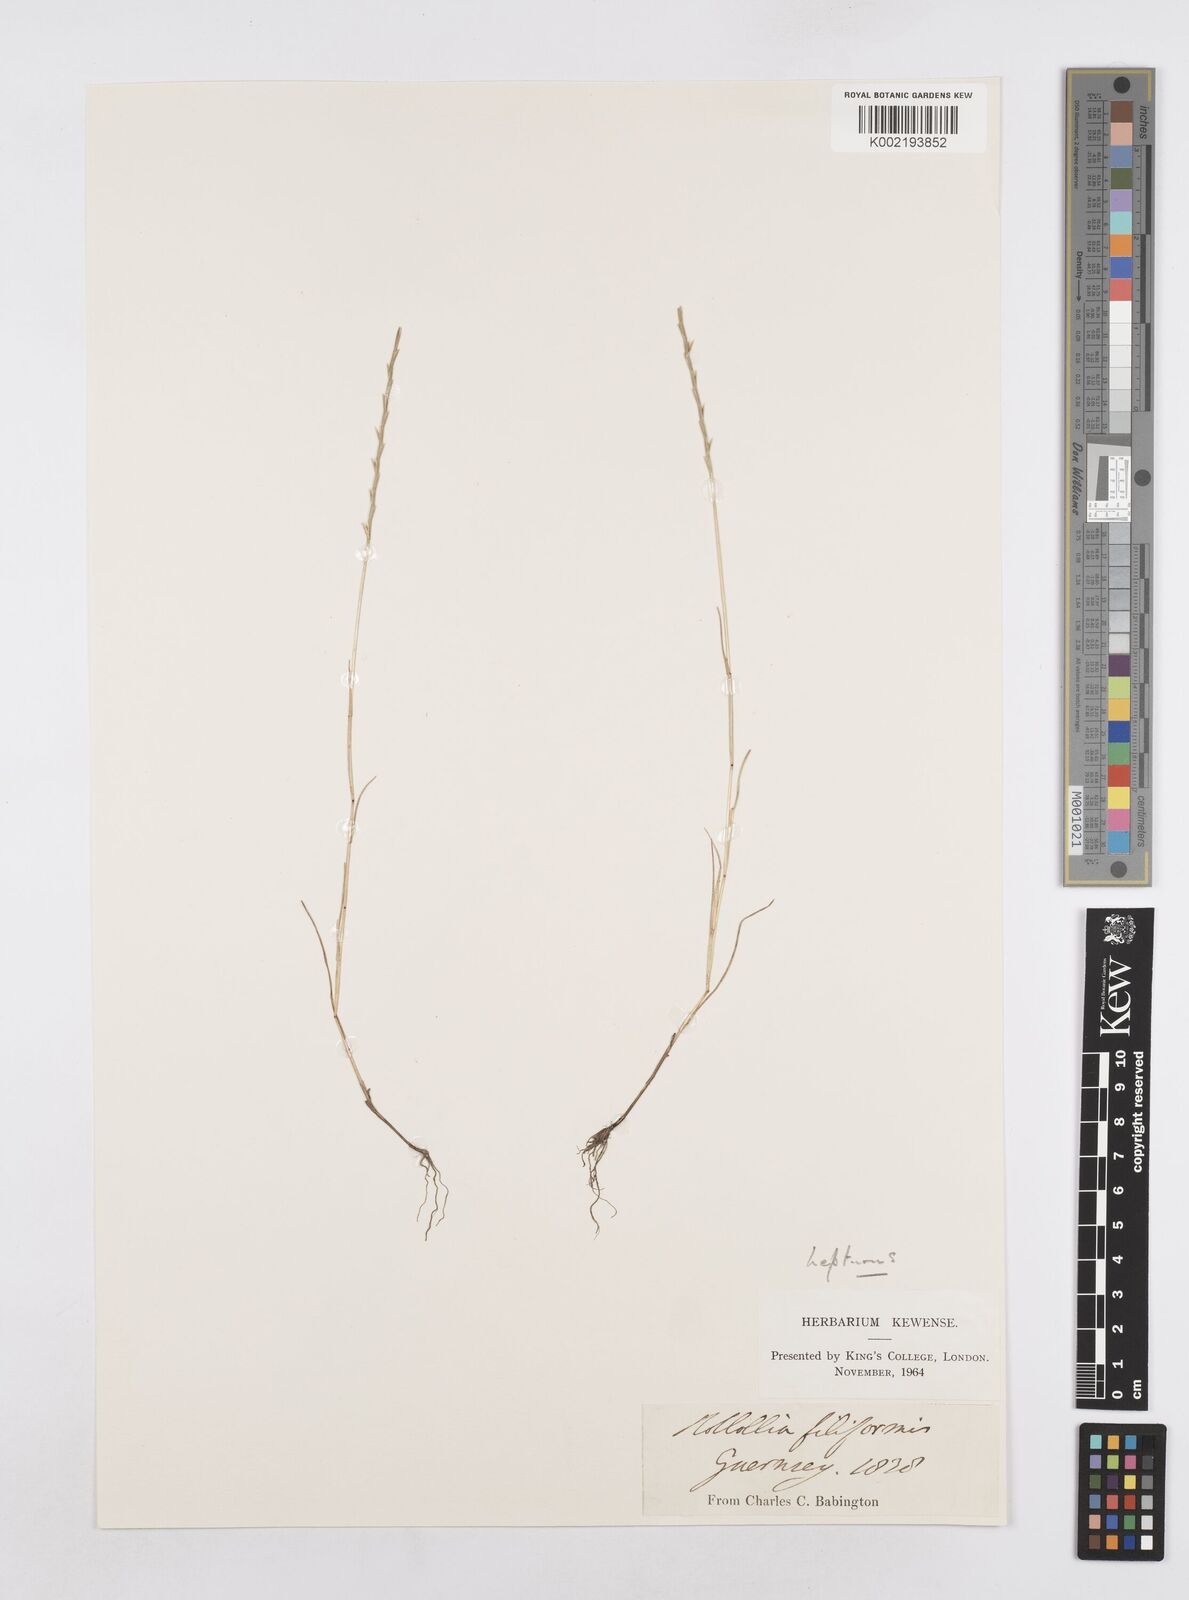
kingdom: Plantae
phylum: Tracheophyta
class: Liliopsida
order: Poales
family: Poaceae
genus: Parapholis
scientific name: Parapholis strigosa
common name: Hard-grass
